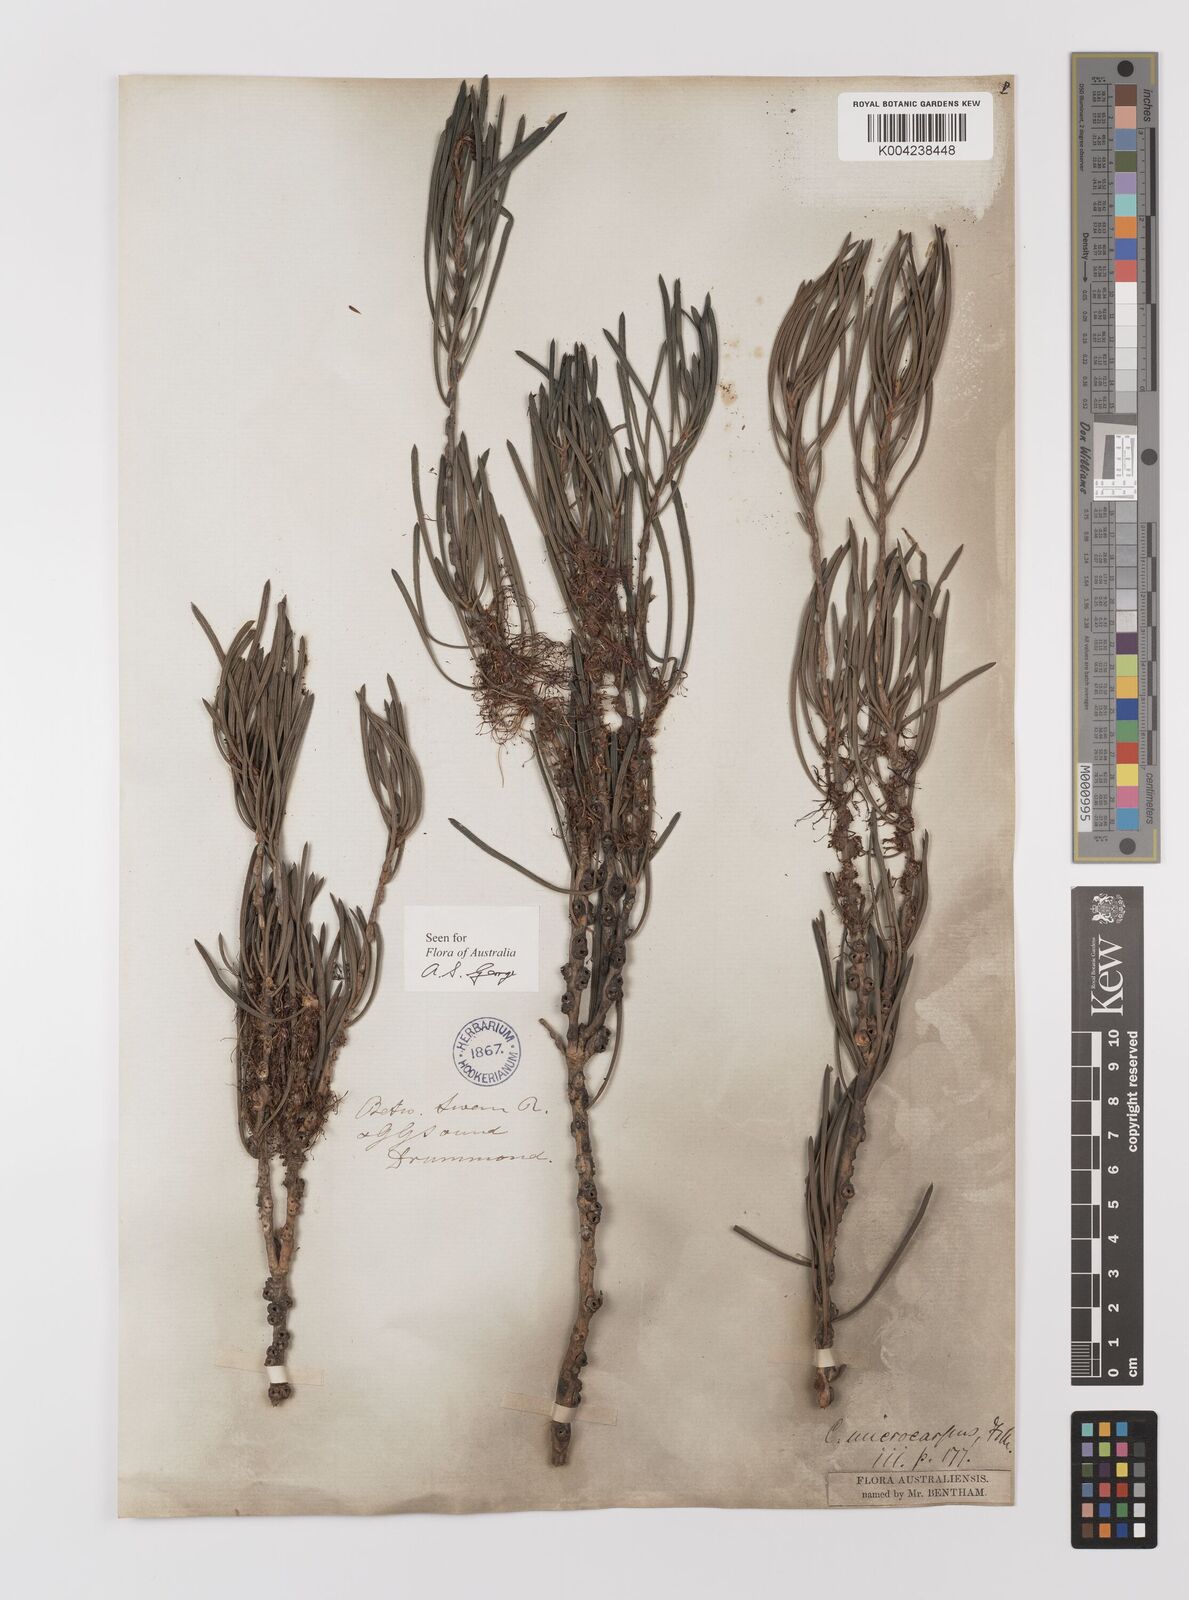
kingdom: Plantae
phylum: Tracheophyta
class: Magnoliopsida
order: Myrtales
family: Myrtaceae
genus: Melaleuca
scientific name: Melaleuca microcarpa
